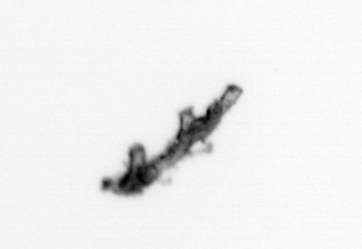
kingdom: Animalia
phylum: Cnidaria
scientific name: Cnidaria
